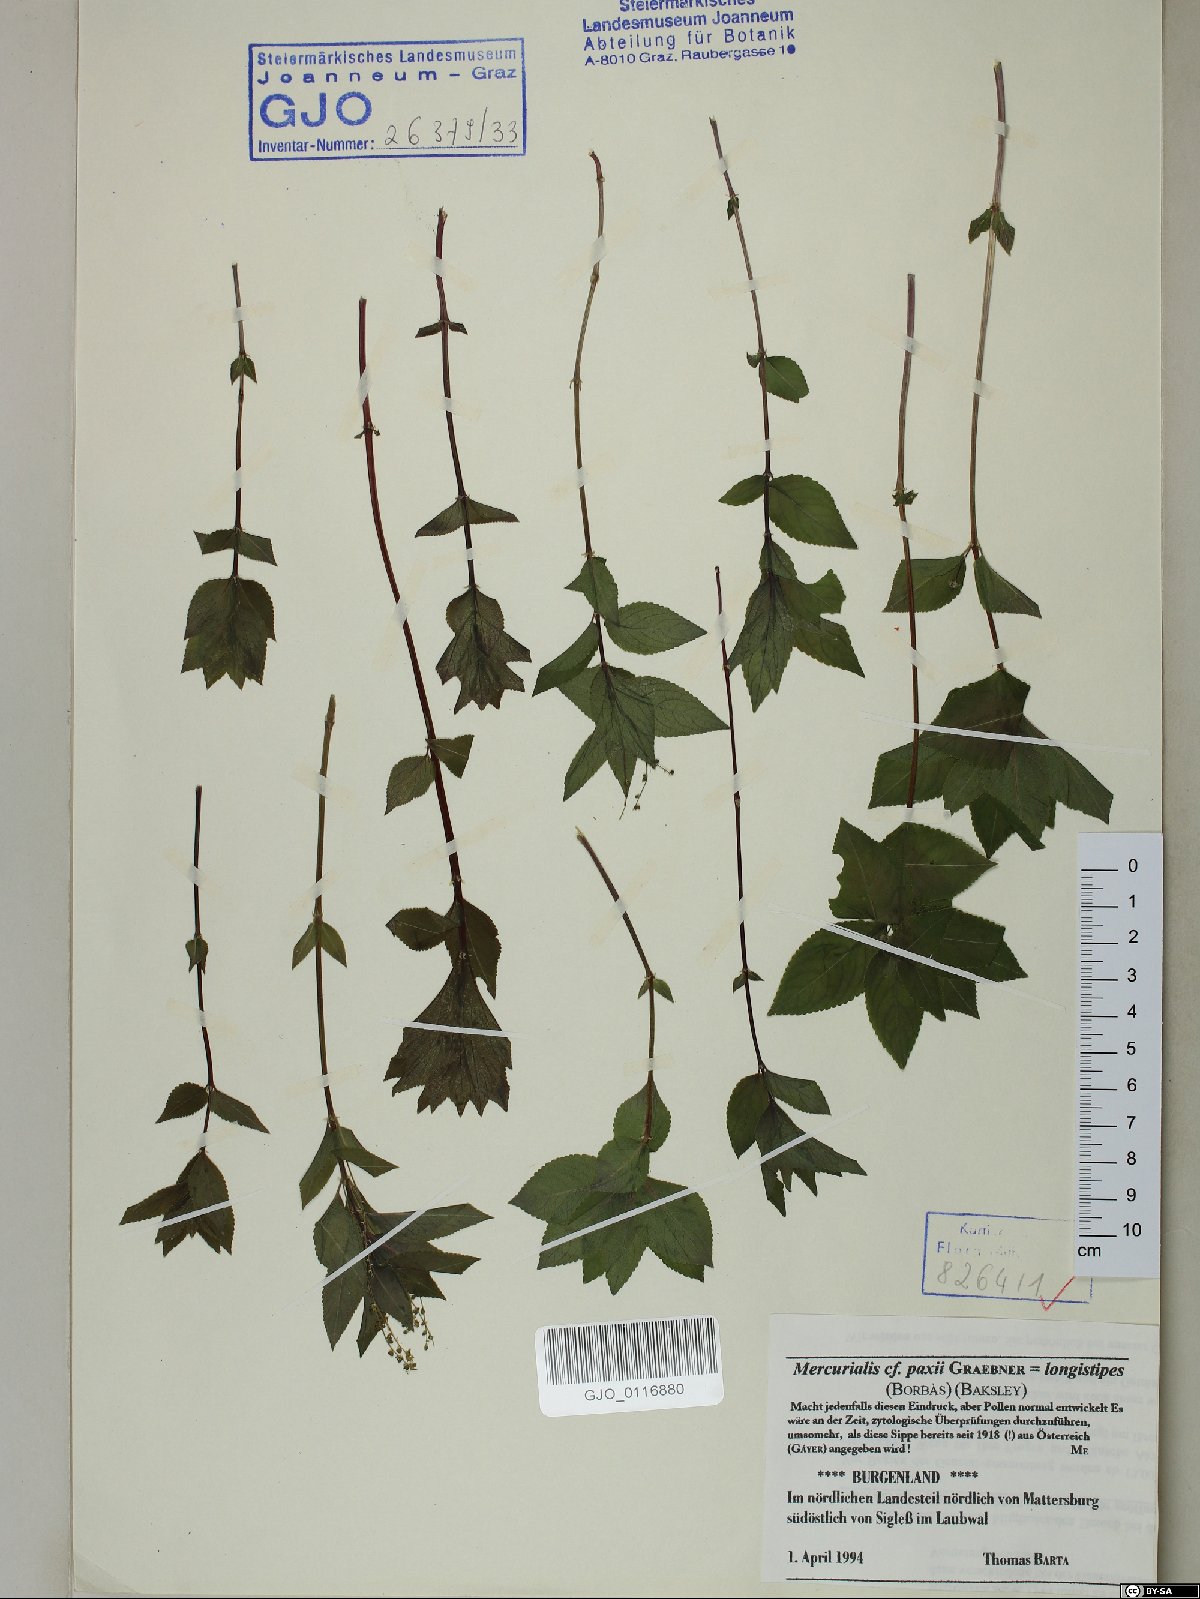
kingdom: Plantae
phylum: Tracheophyta
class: Magnoliopsida
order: Malpighiales
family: Euphorbiaceae
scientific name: Euphorbiaceae
